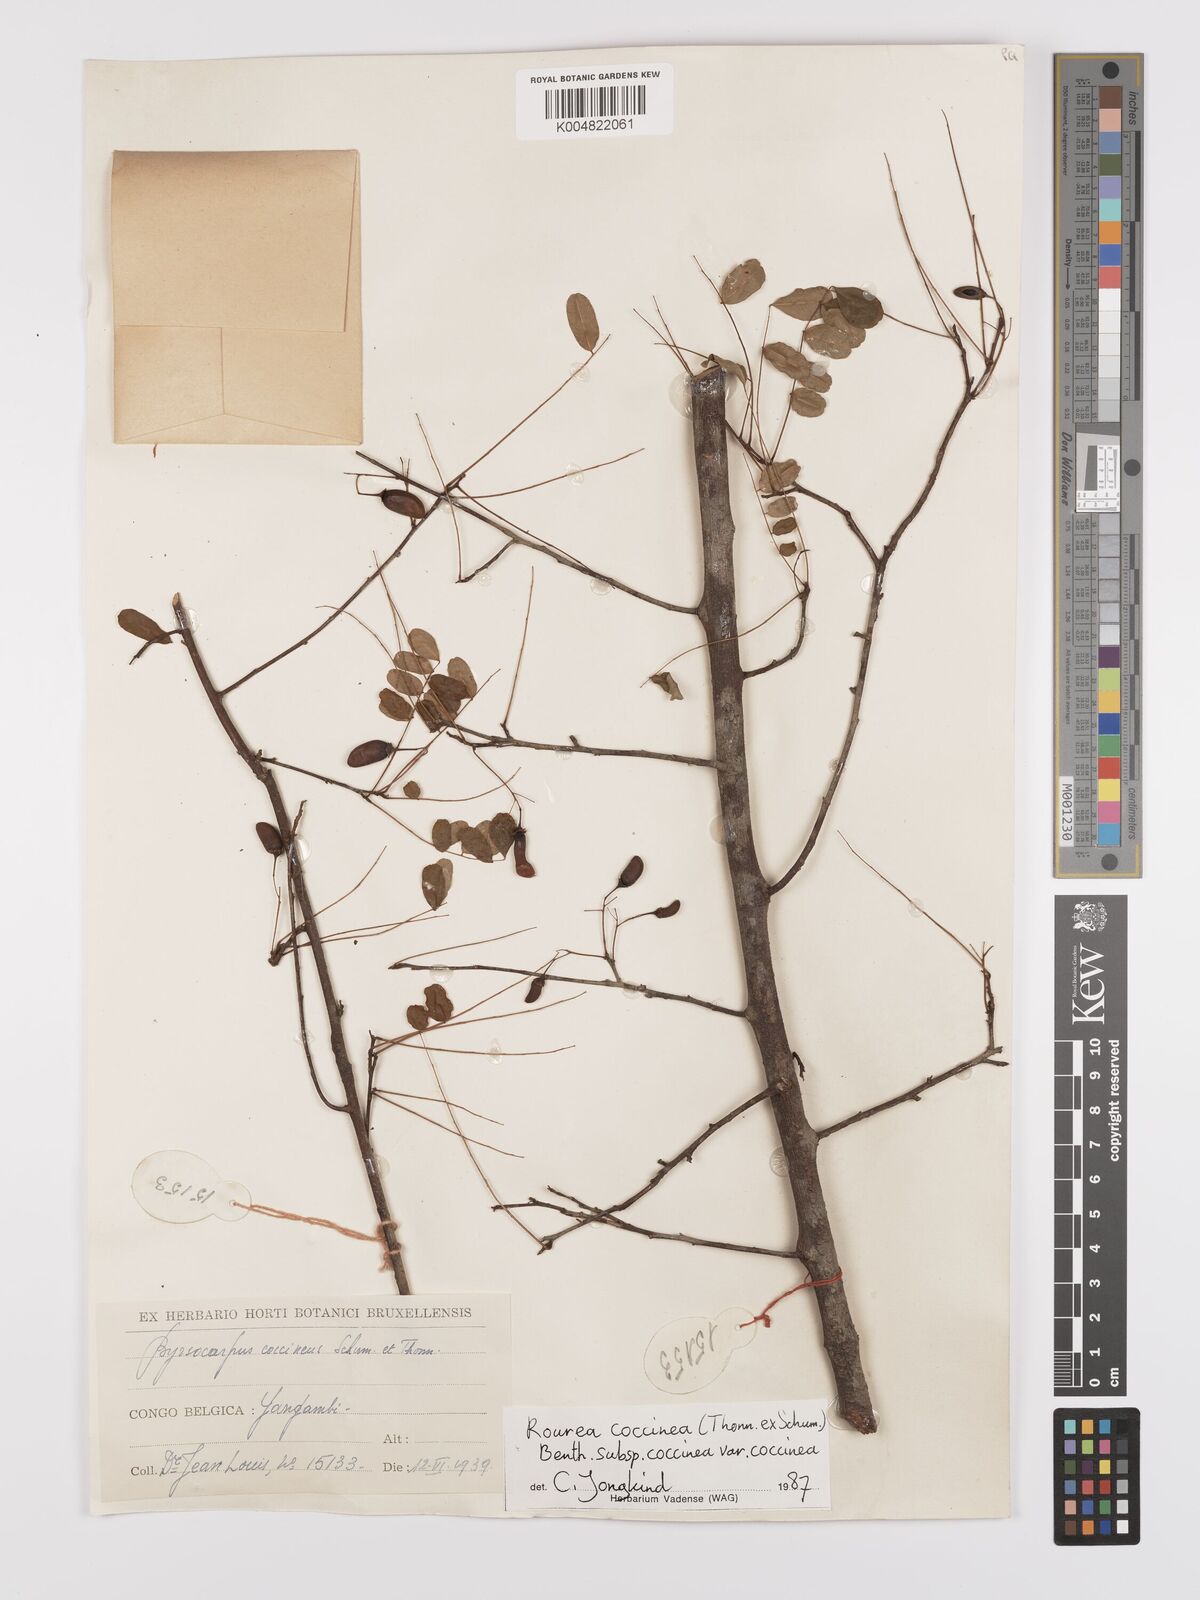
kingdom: Plantae
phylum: Tracheophyta
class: Magnoliopsida
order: Oxalidales
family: Connaraceae
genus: Rourea
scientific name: Rourea coccinea
